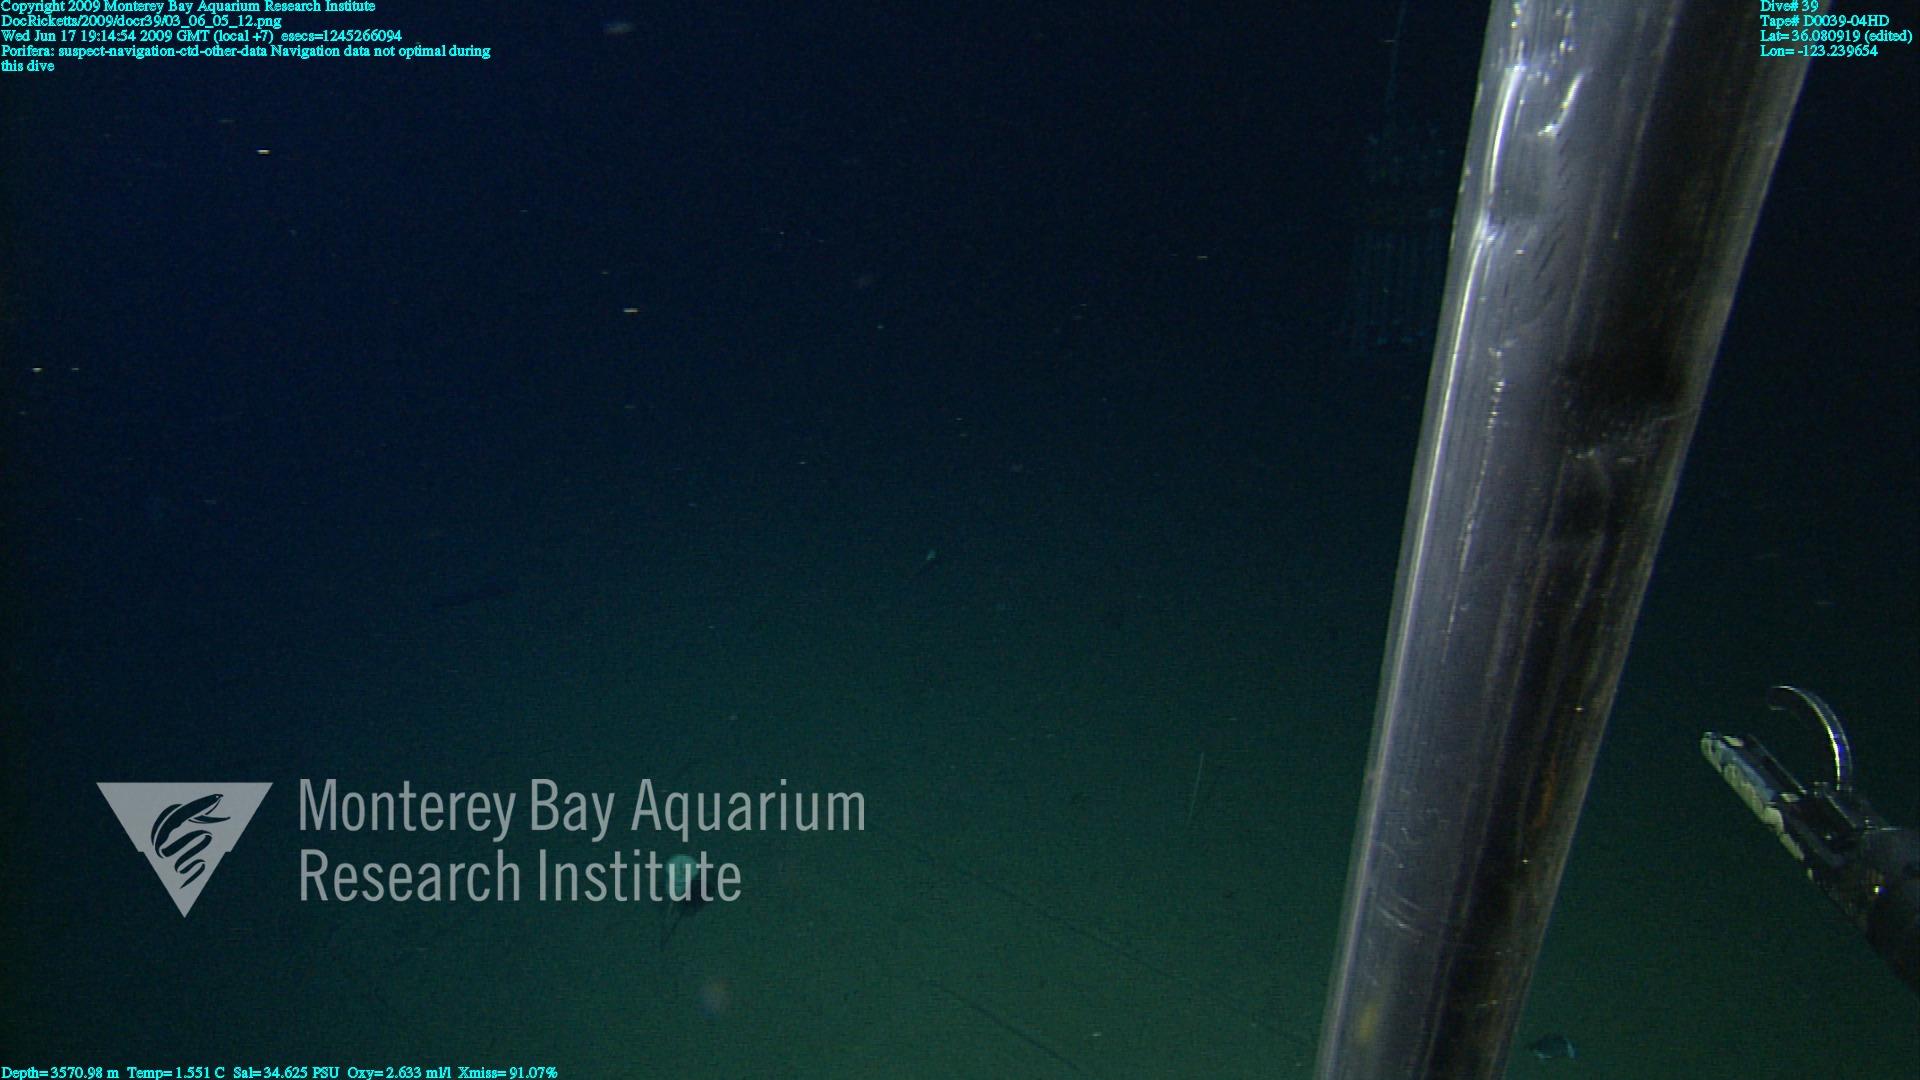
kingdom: Animalia
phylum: Porifera
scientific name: Porifera
